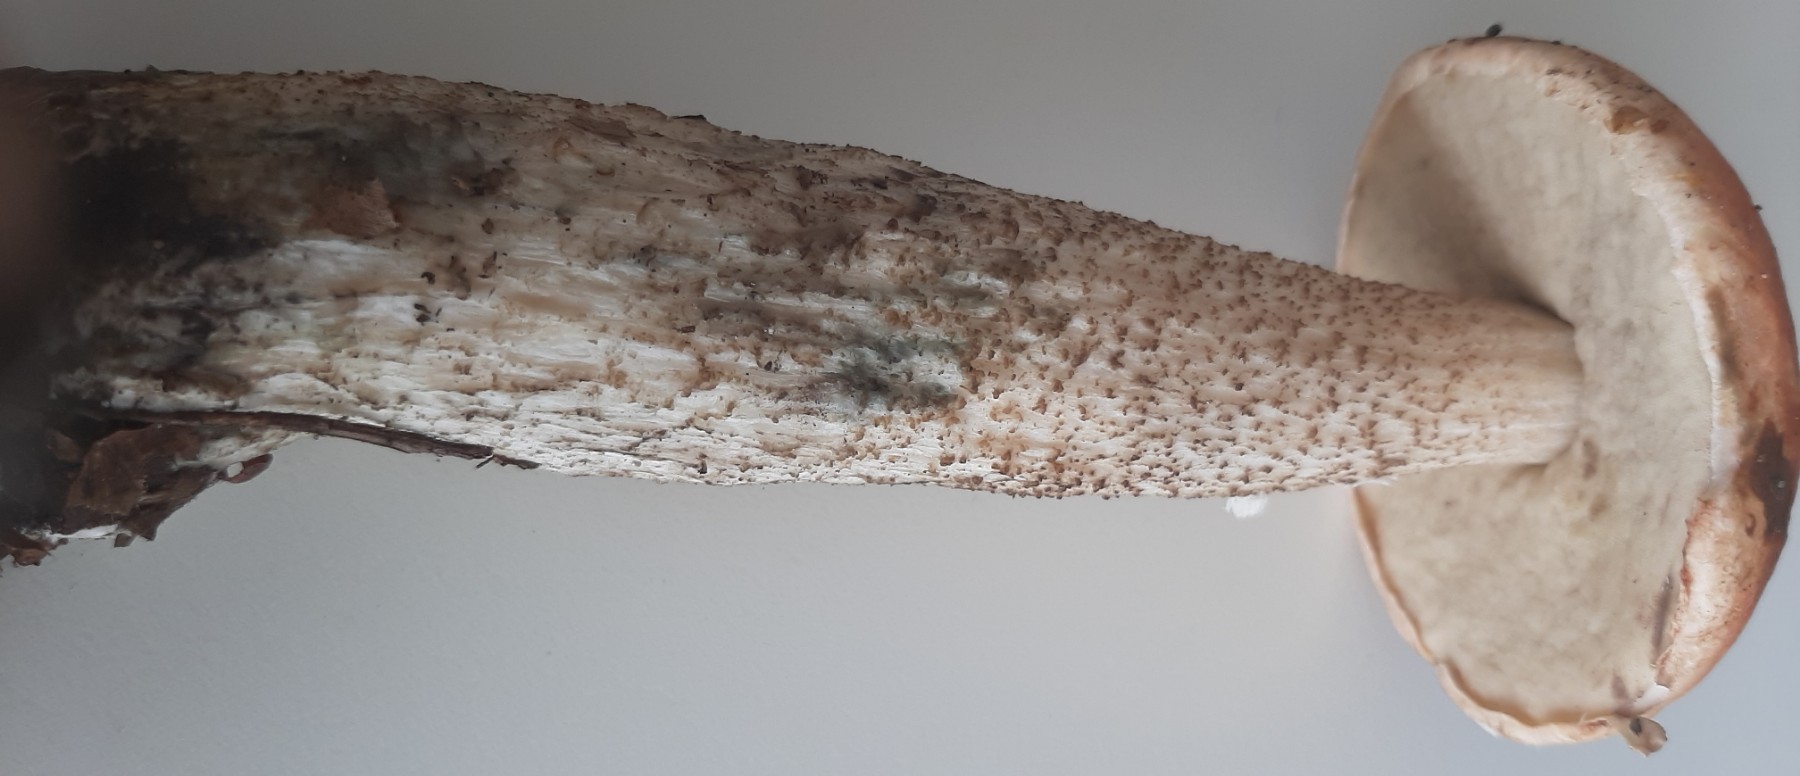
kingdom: Fungi
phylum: Basidiomycota
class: Agaricomycetes
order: Boletales
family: Boletaceae
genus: Leccinum
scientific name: Leccinum
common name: skælrørhat
